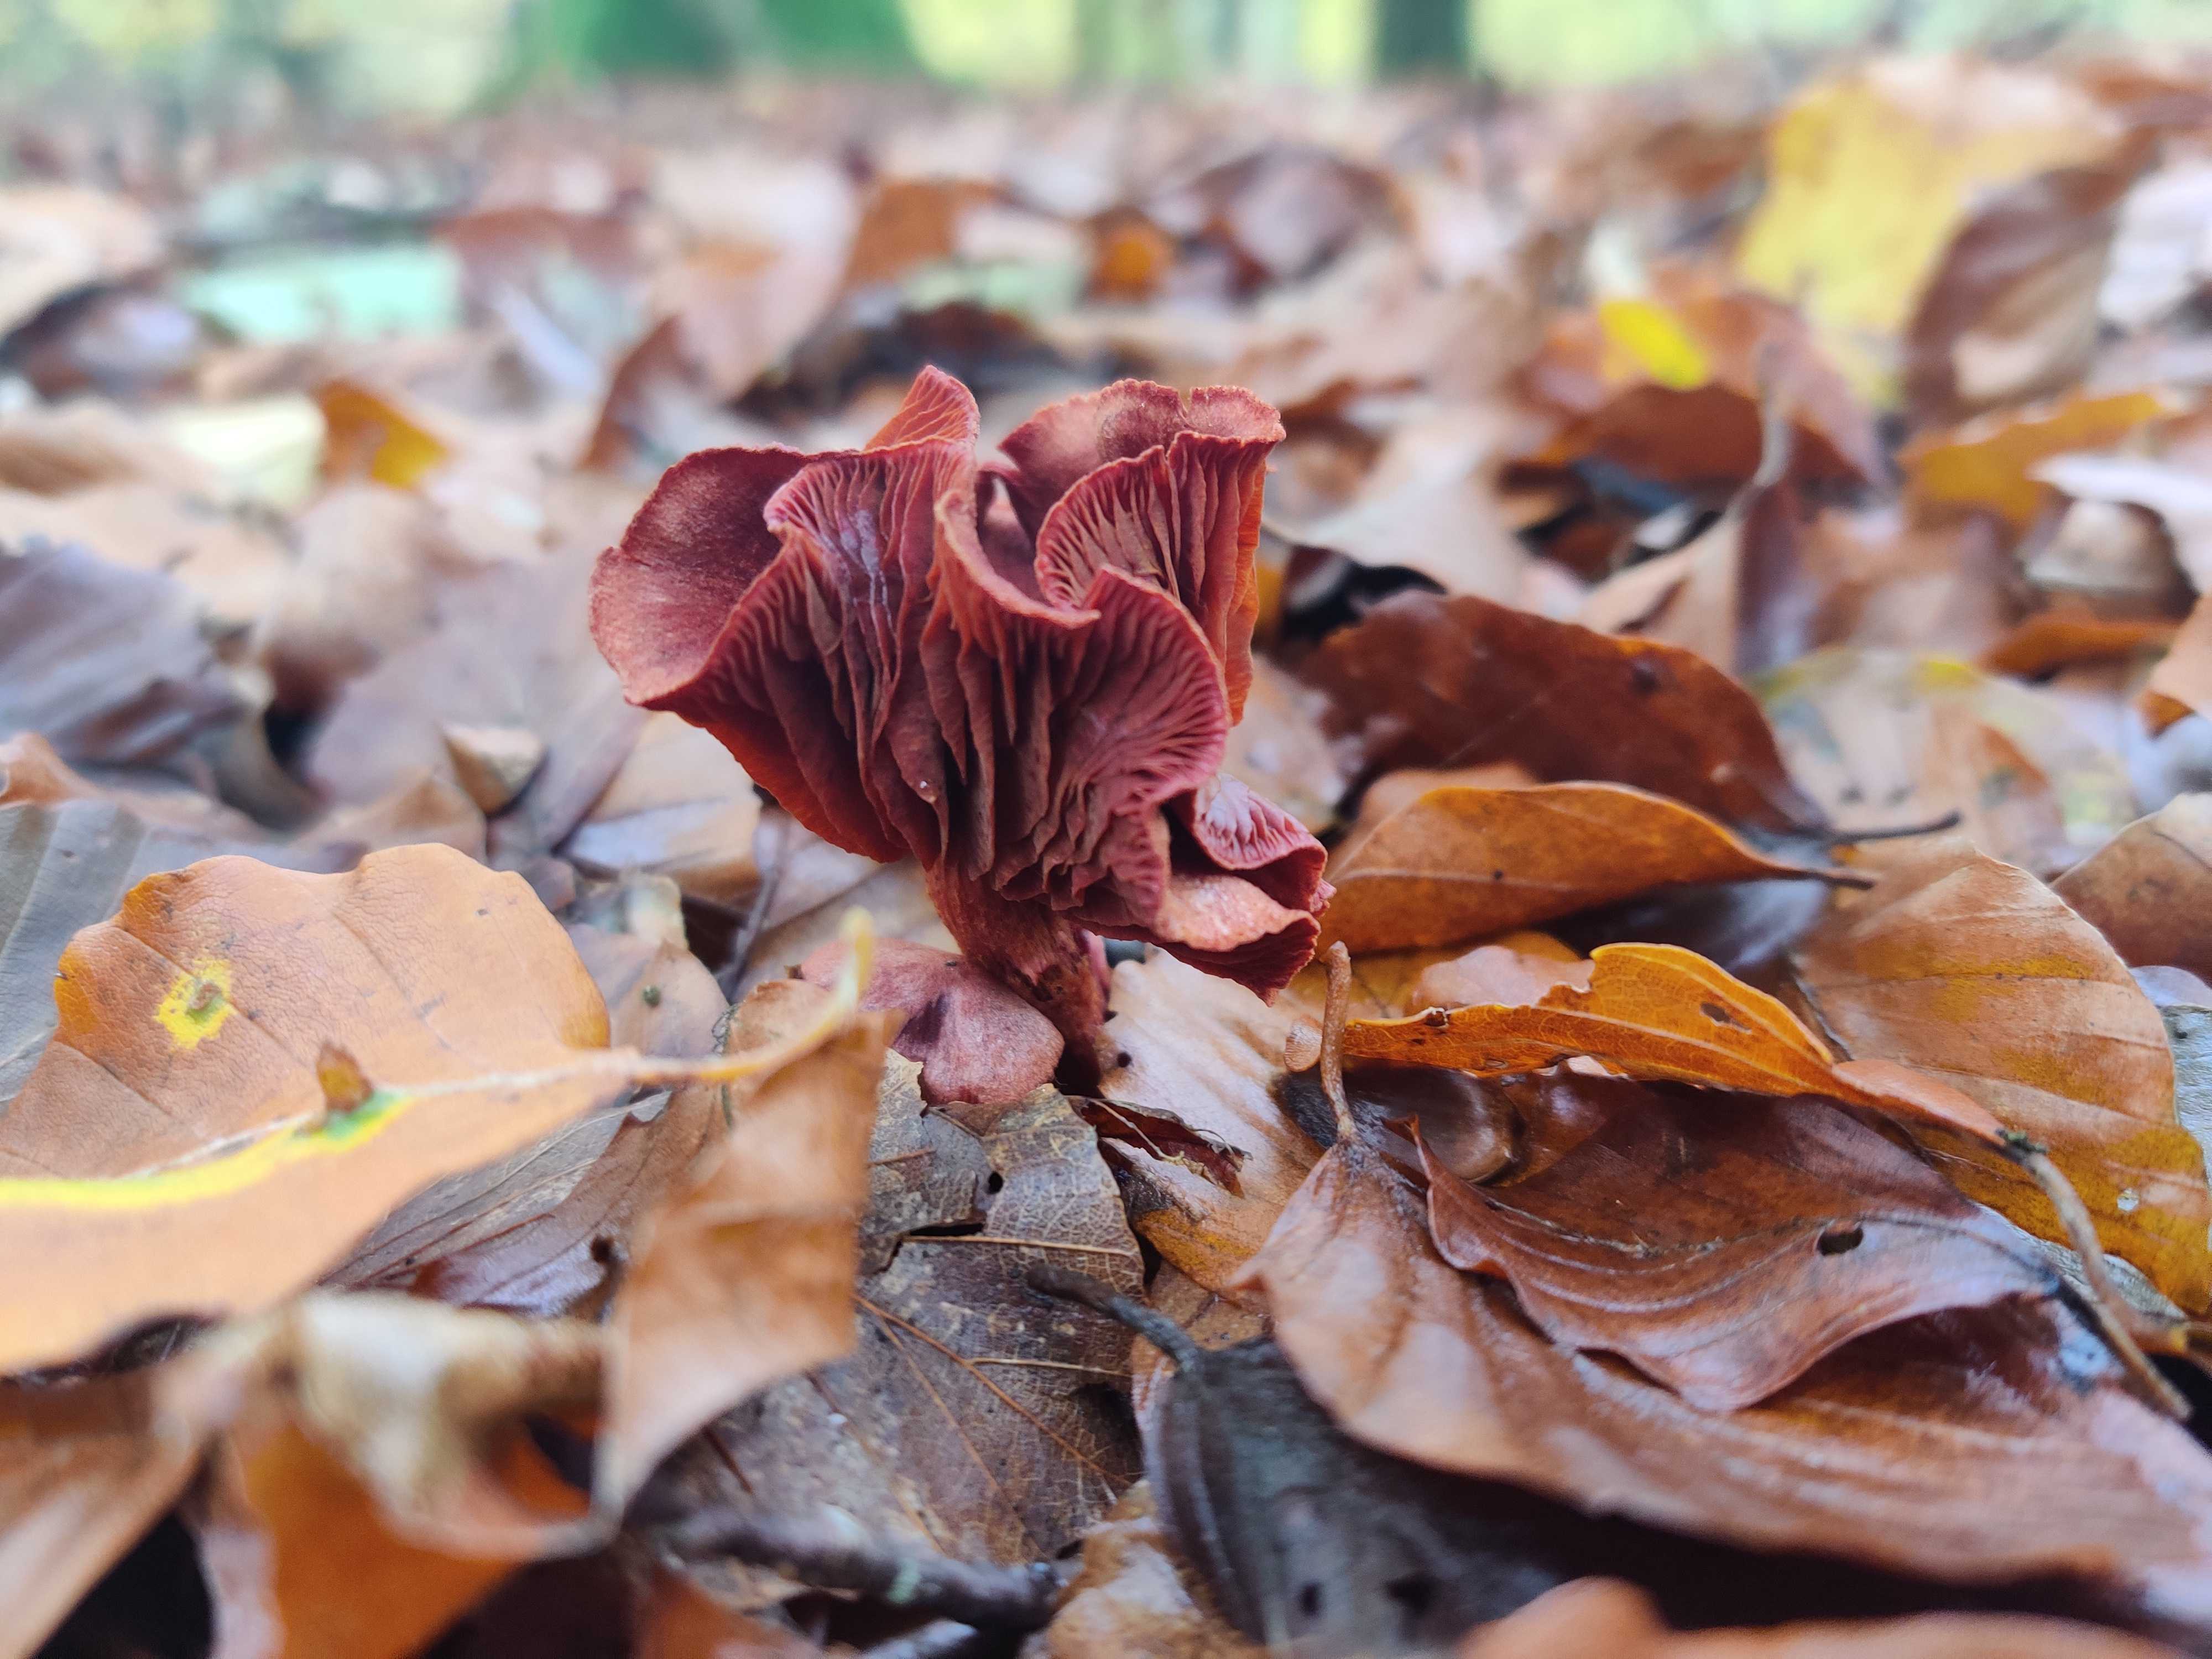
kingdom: Fungi
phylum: Basidiomycota
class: Agaricomycetes
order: Agaricales
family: Cortinariaceae
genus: Cortinarius
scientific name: Cortinarius
